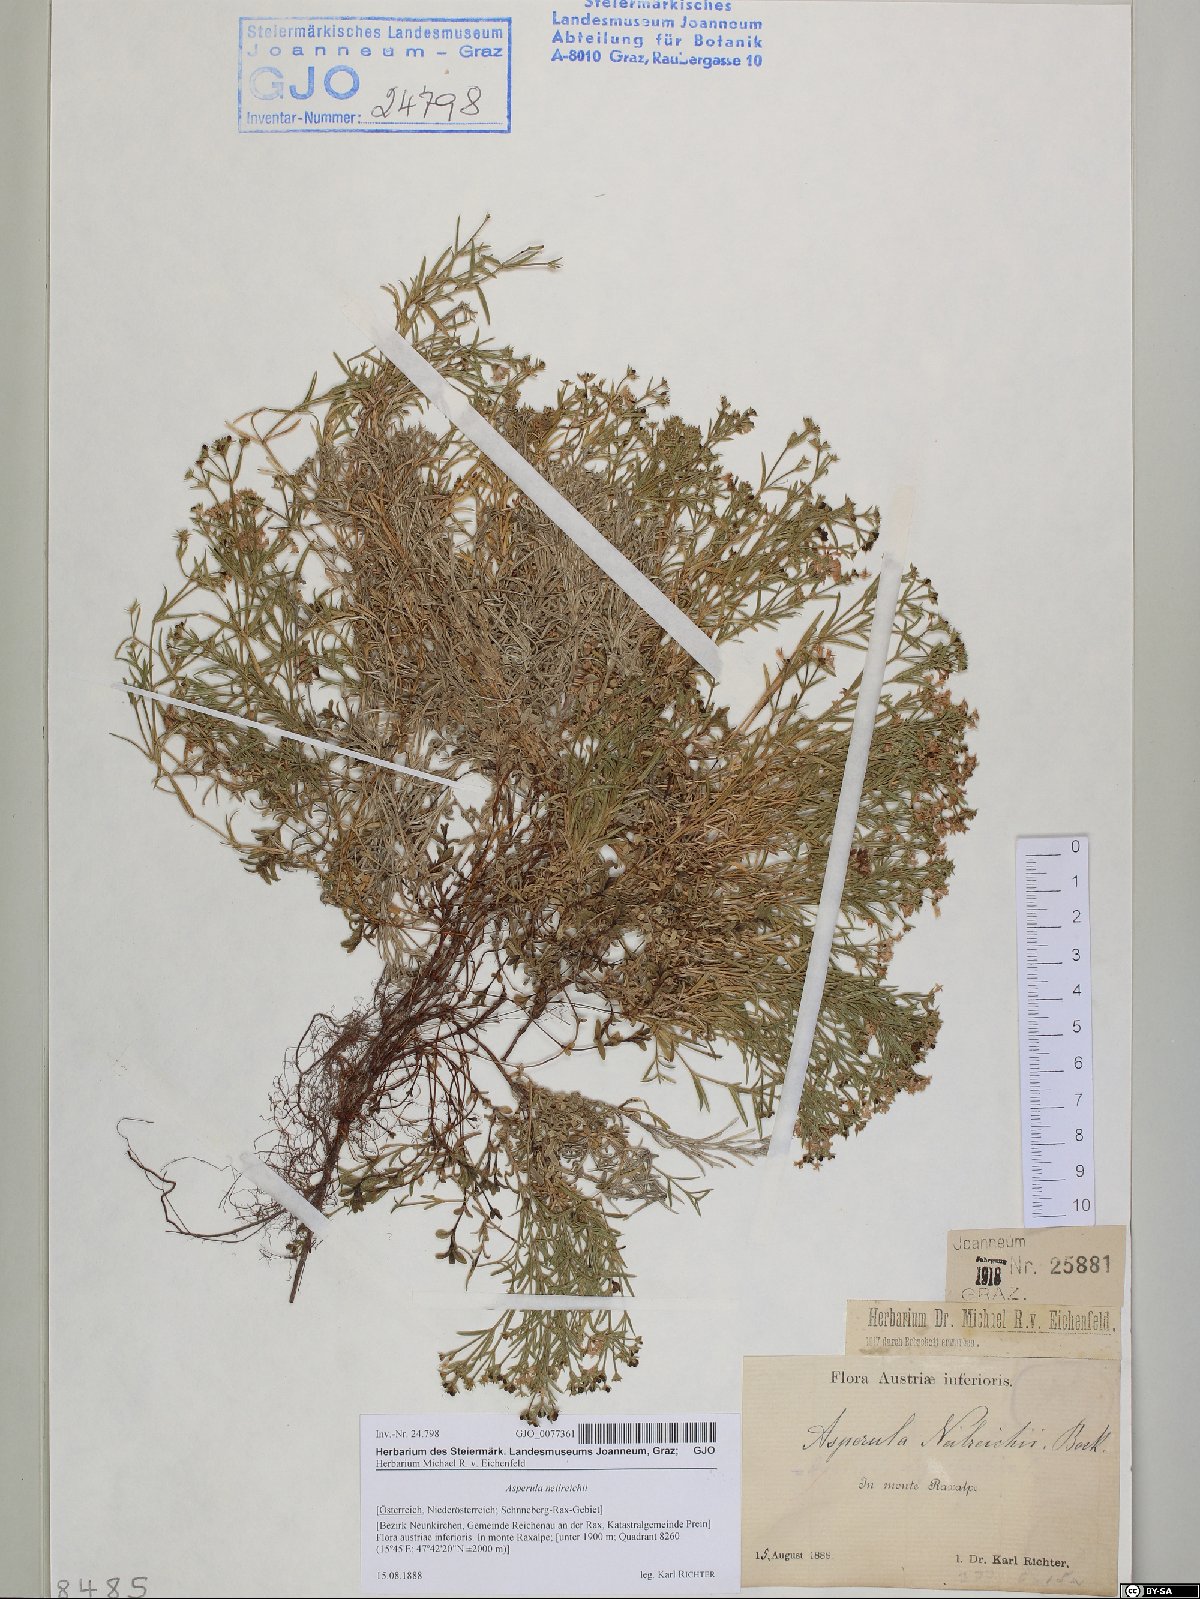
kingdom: Plantae
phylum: Tracheophyta
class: Magnoliopsida
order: Gentianales
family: Rubiaceae
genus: Cynanchica
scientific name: Cynanchica neilreichii
